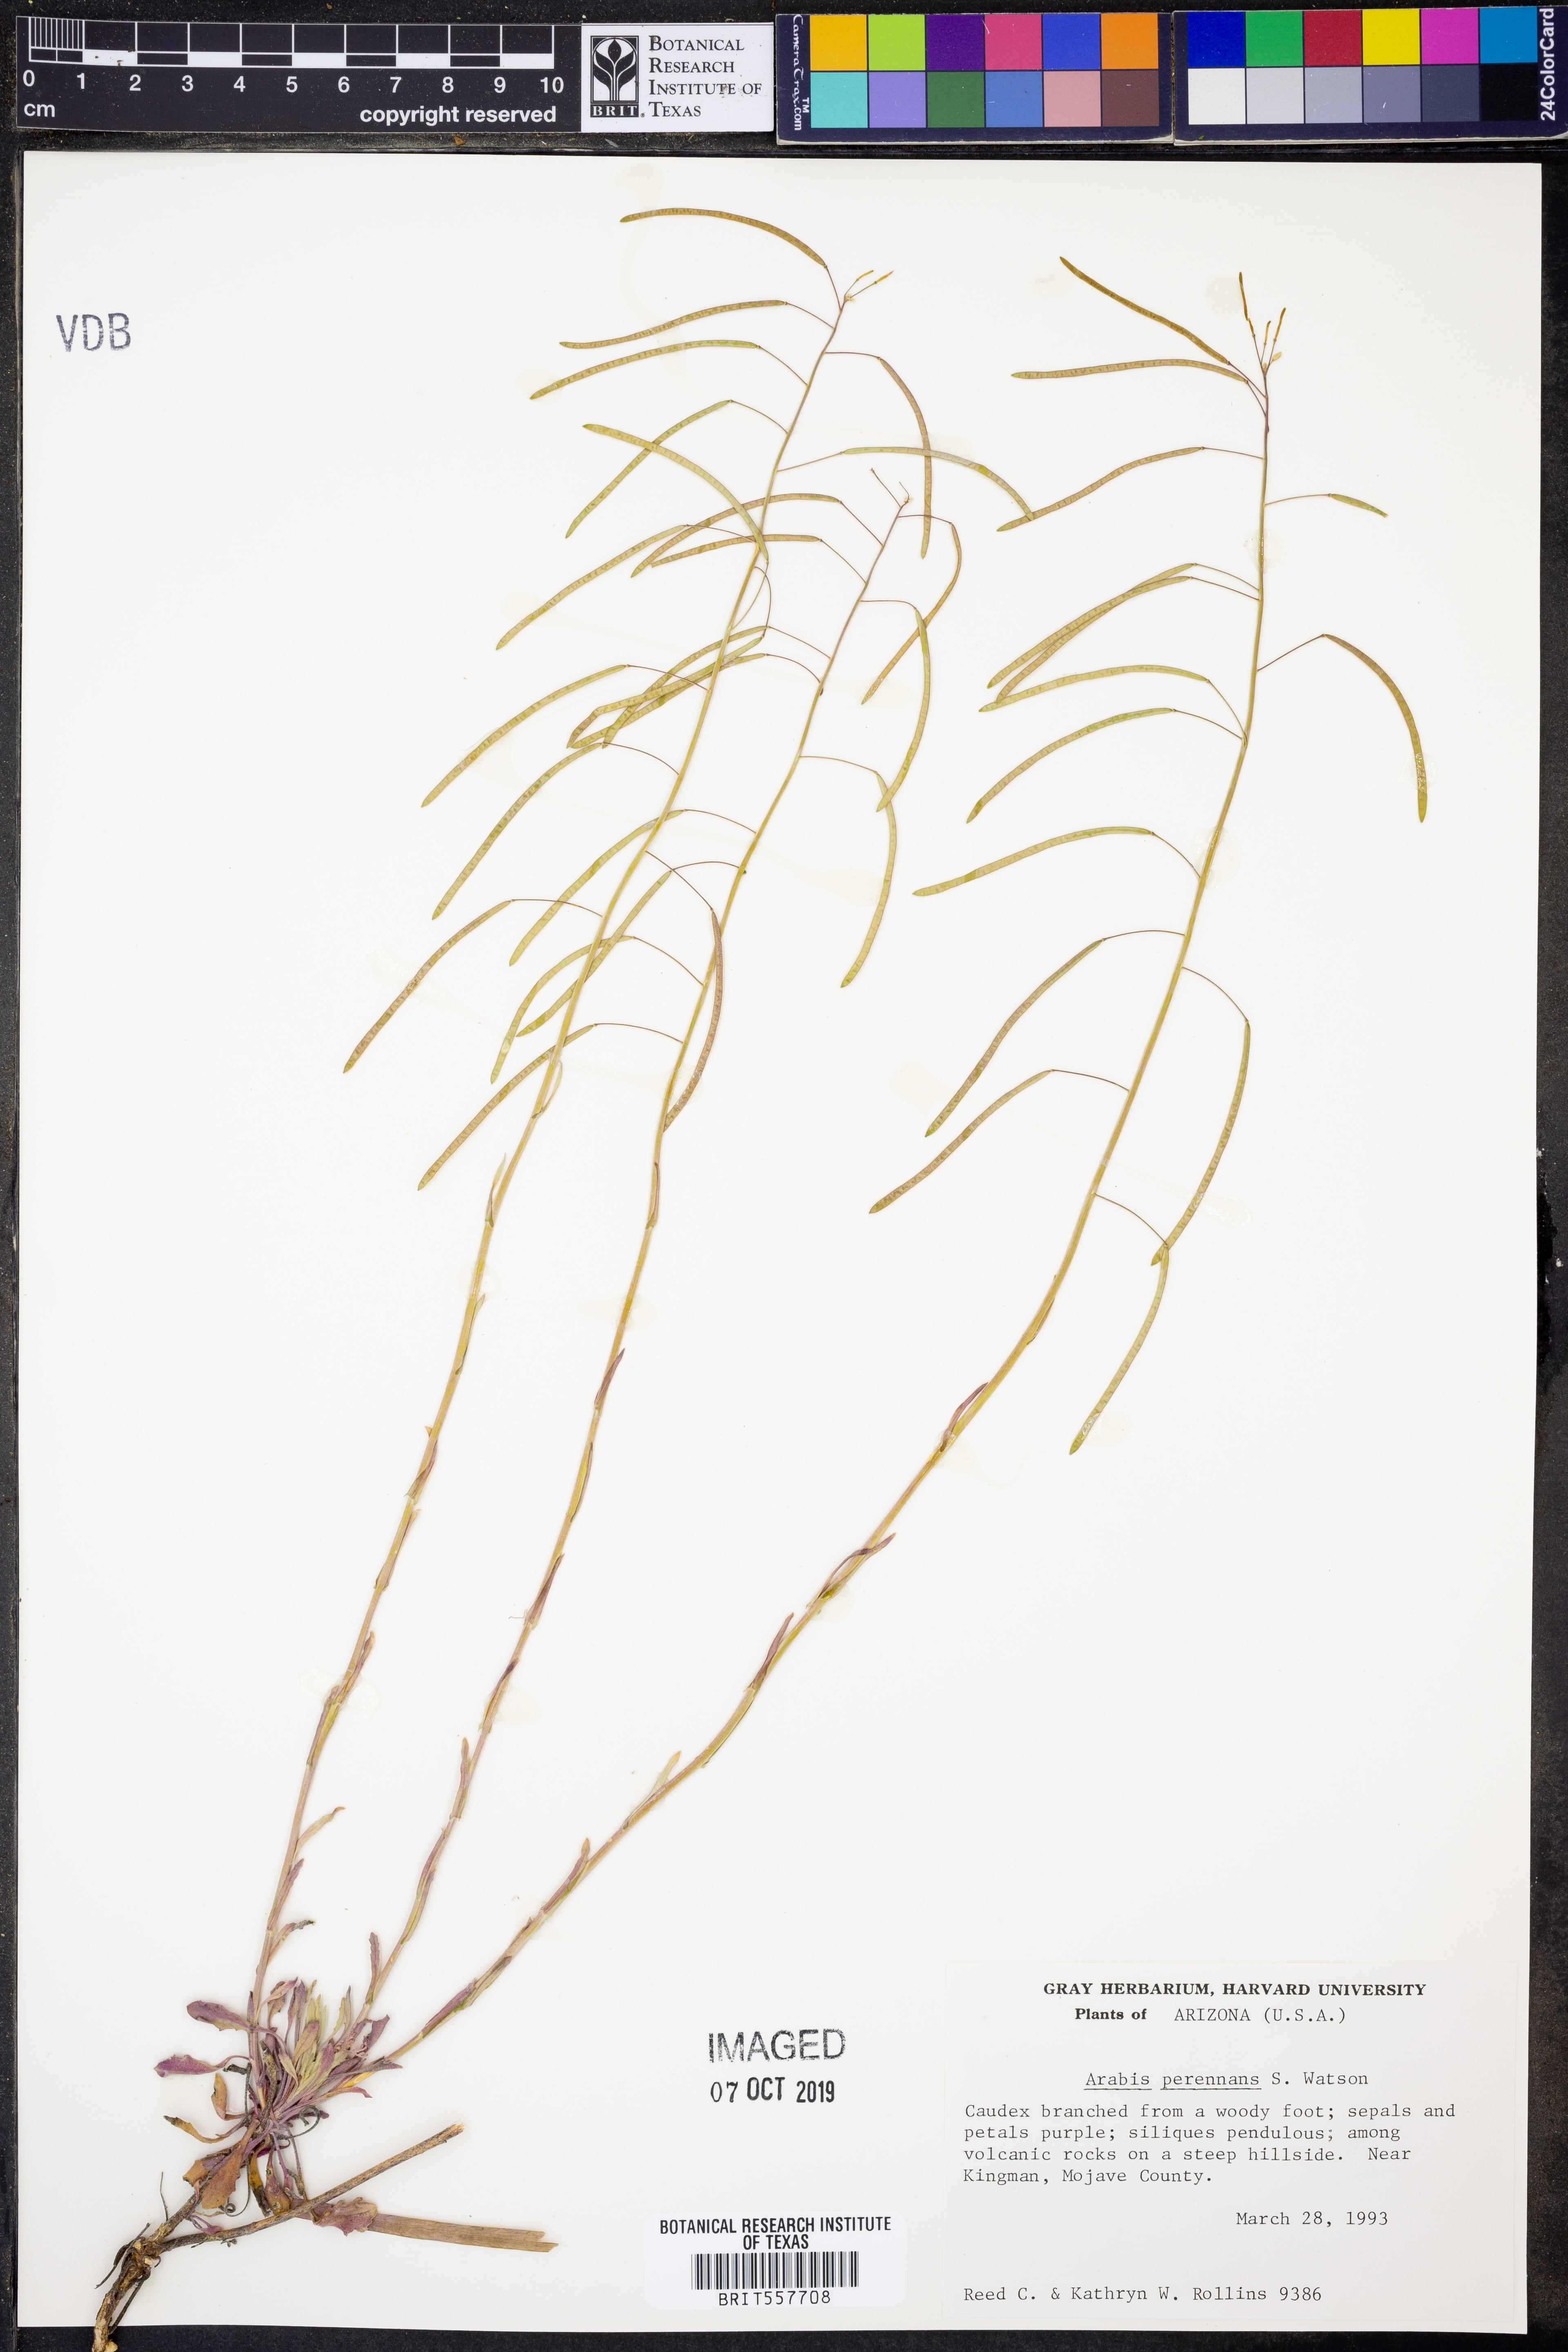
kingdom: Plantae
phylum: Tracheophyta
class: Magnoliopsida
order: Brassicales
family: Brassicaceae
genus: Boechera
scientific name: Boechera perennans
